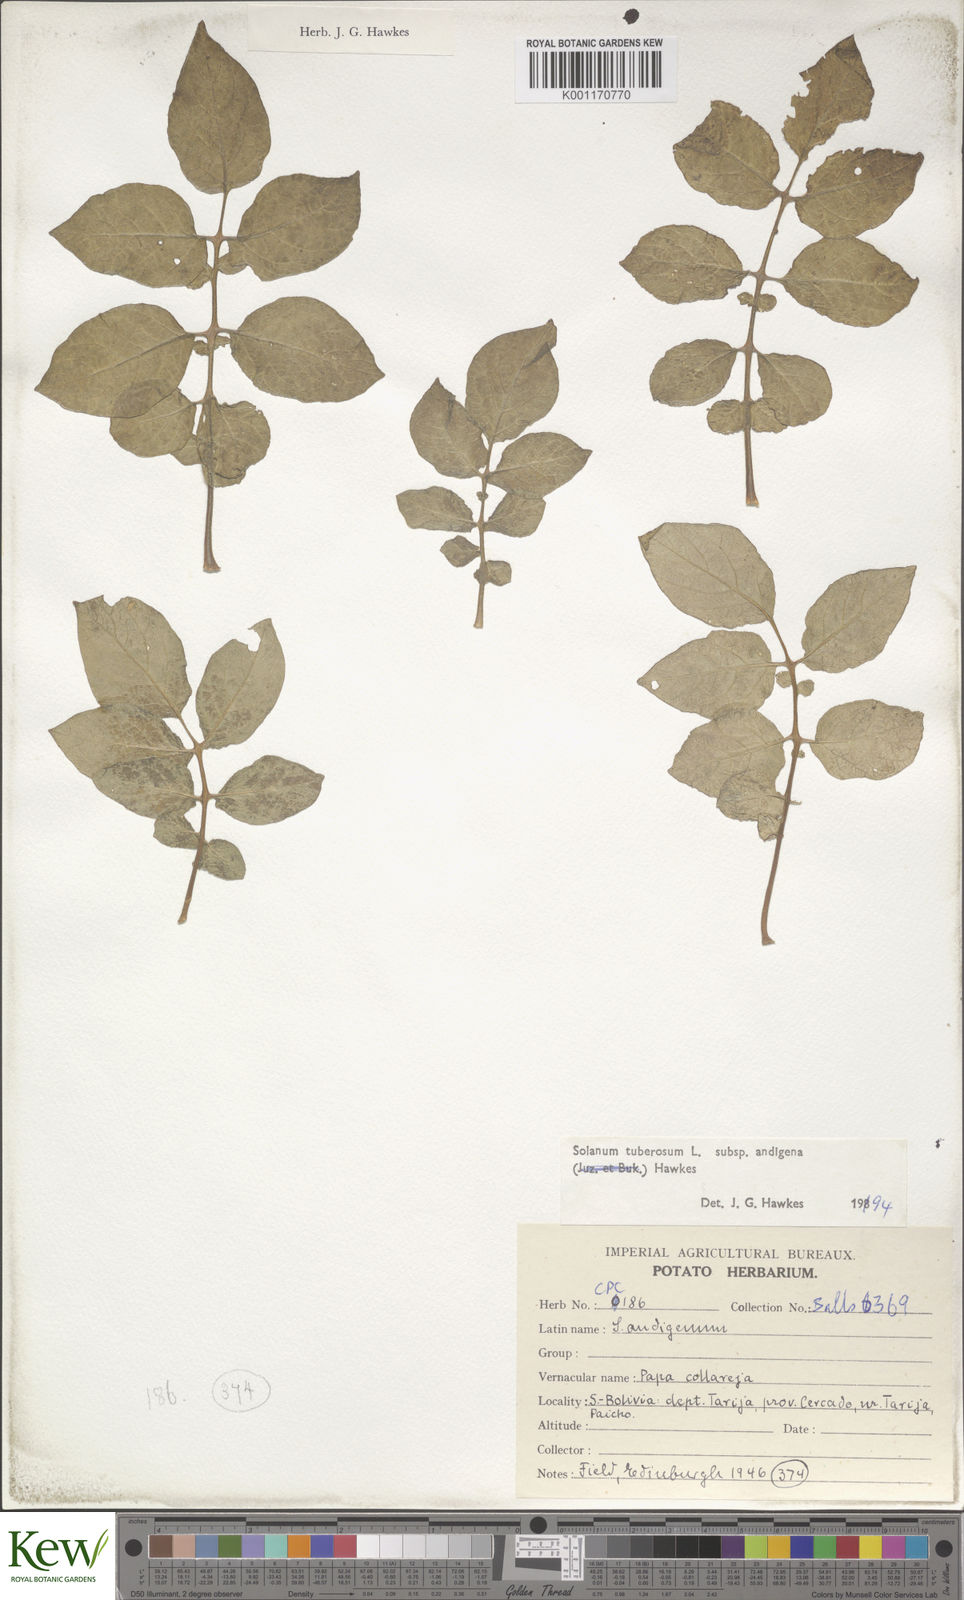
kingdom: Plantae
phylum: Tracheophyta
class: Magnoliopsida
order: Solanales
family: Solanaceae
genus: Solanum
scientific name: Solanum tuberosum
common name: Potato
